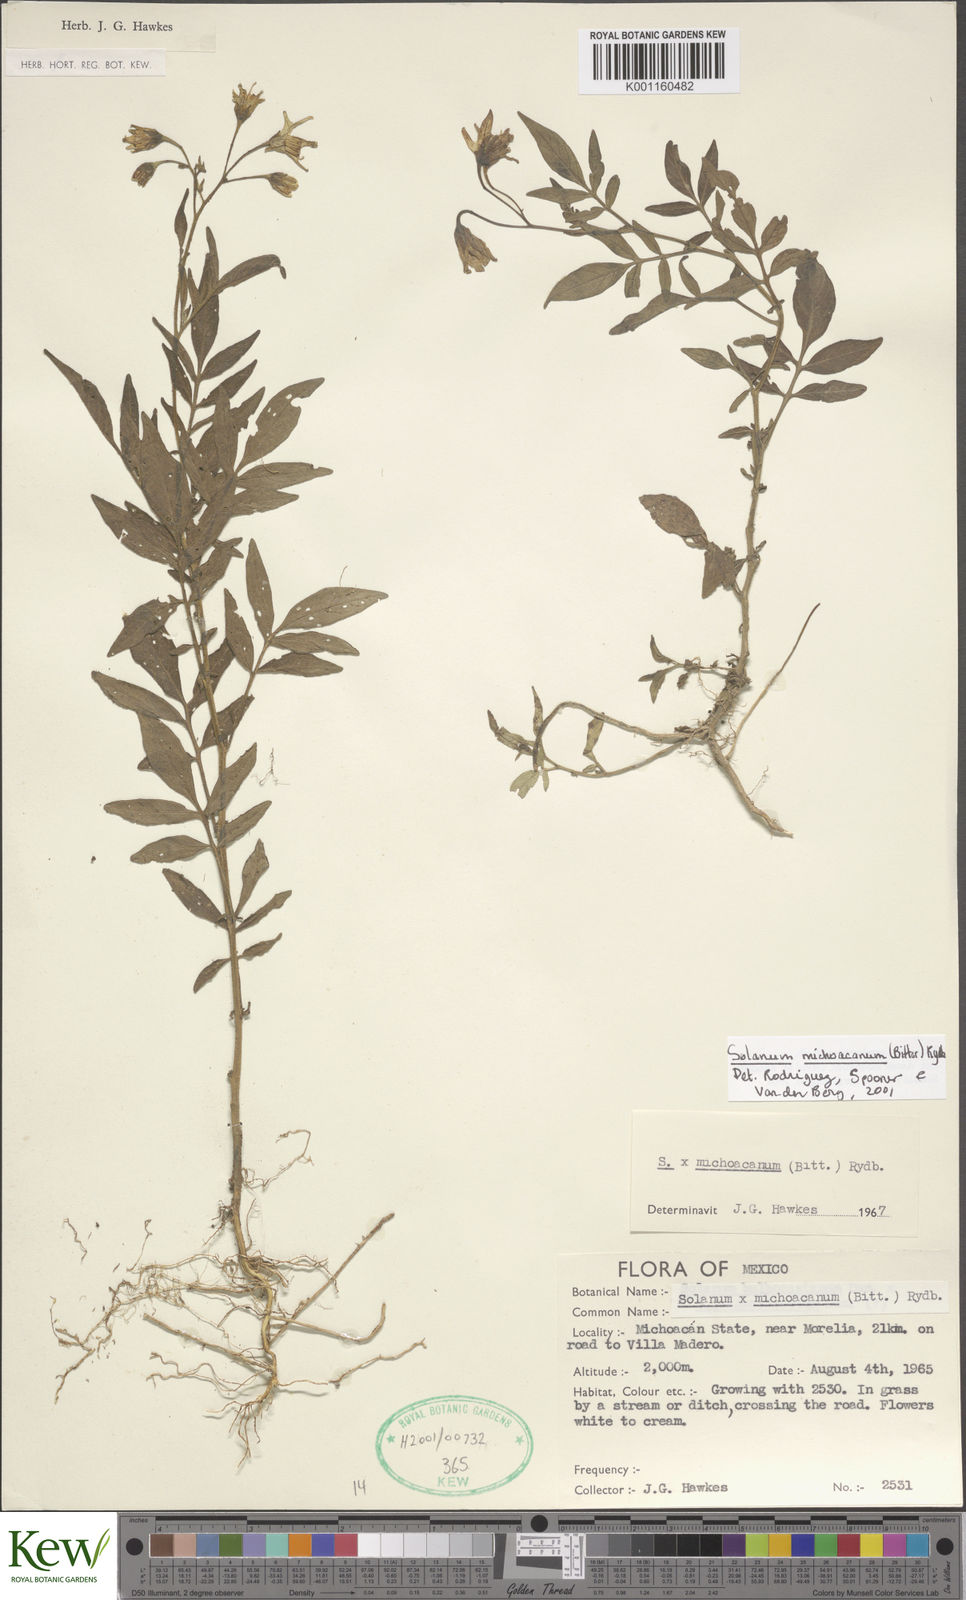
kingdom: Plantae
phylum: Tracheophyta
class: Magnoliopsida
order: Solanales
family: Solanaceae
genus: Solanum
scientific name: Solanum bulbocastanum
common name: Ornamental nightshade
